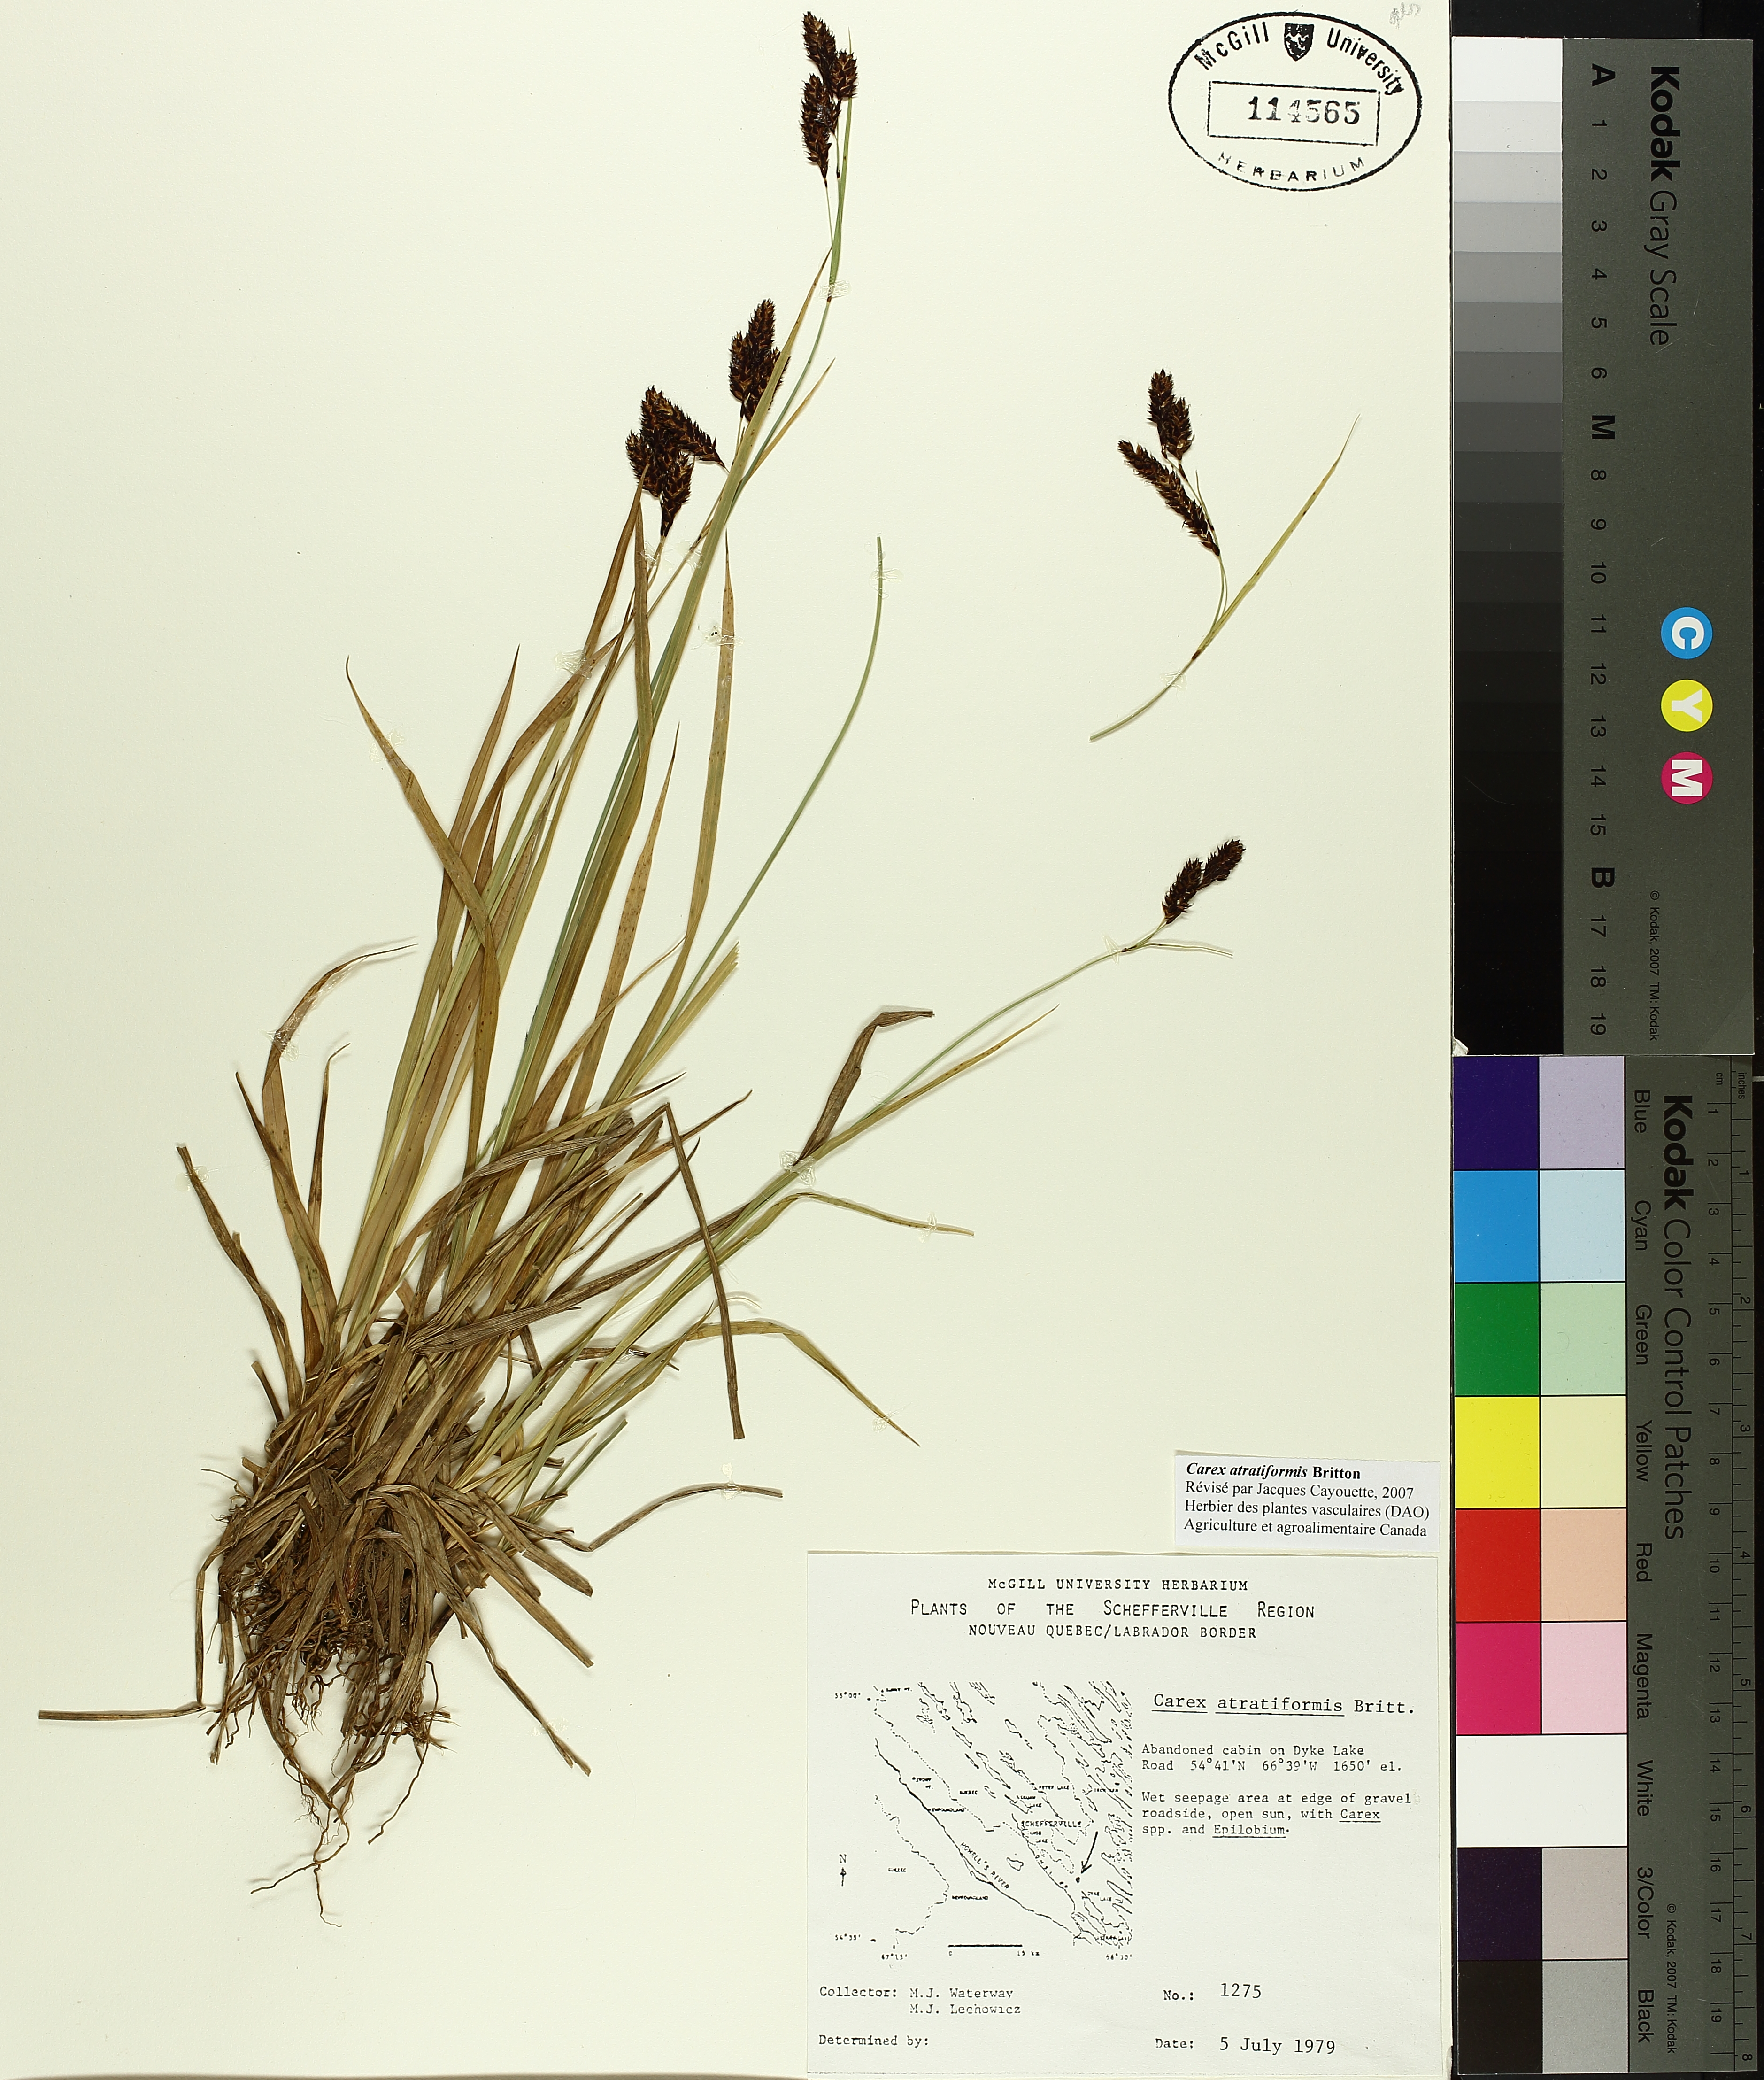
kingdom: Plantae
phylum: Tracheophyta
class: Liliopsida
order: Poales
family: Cyperaceae
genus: Carex
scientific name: Carex atratiformis
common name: Black sedge
